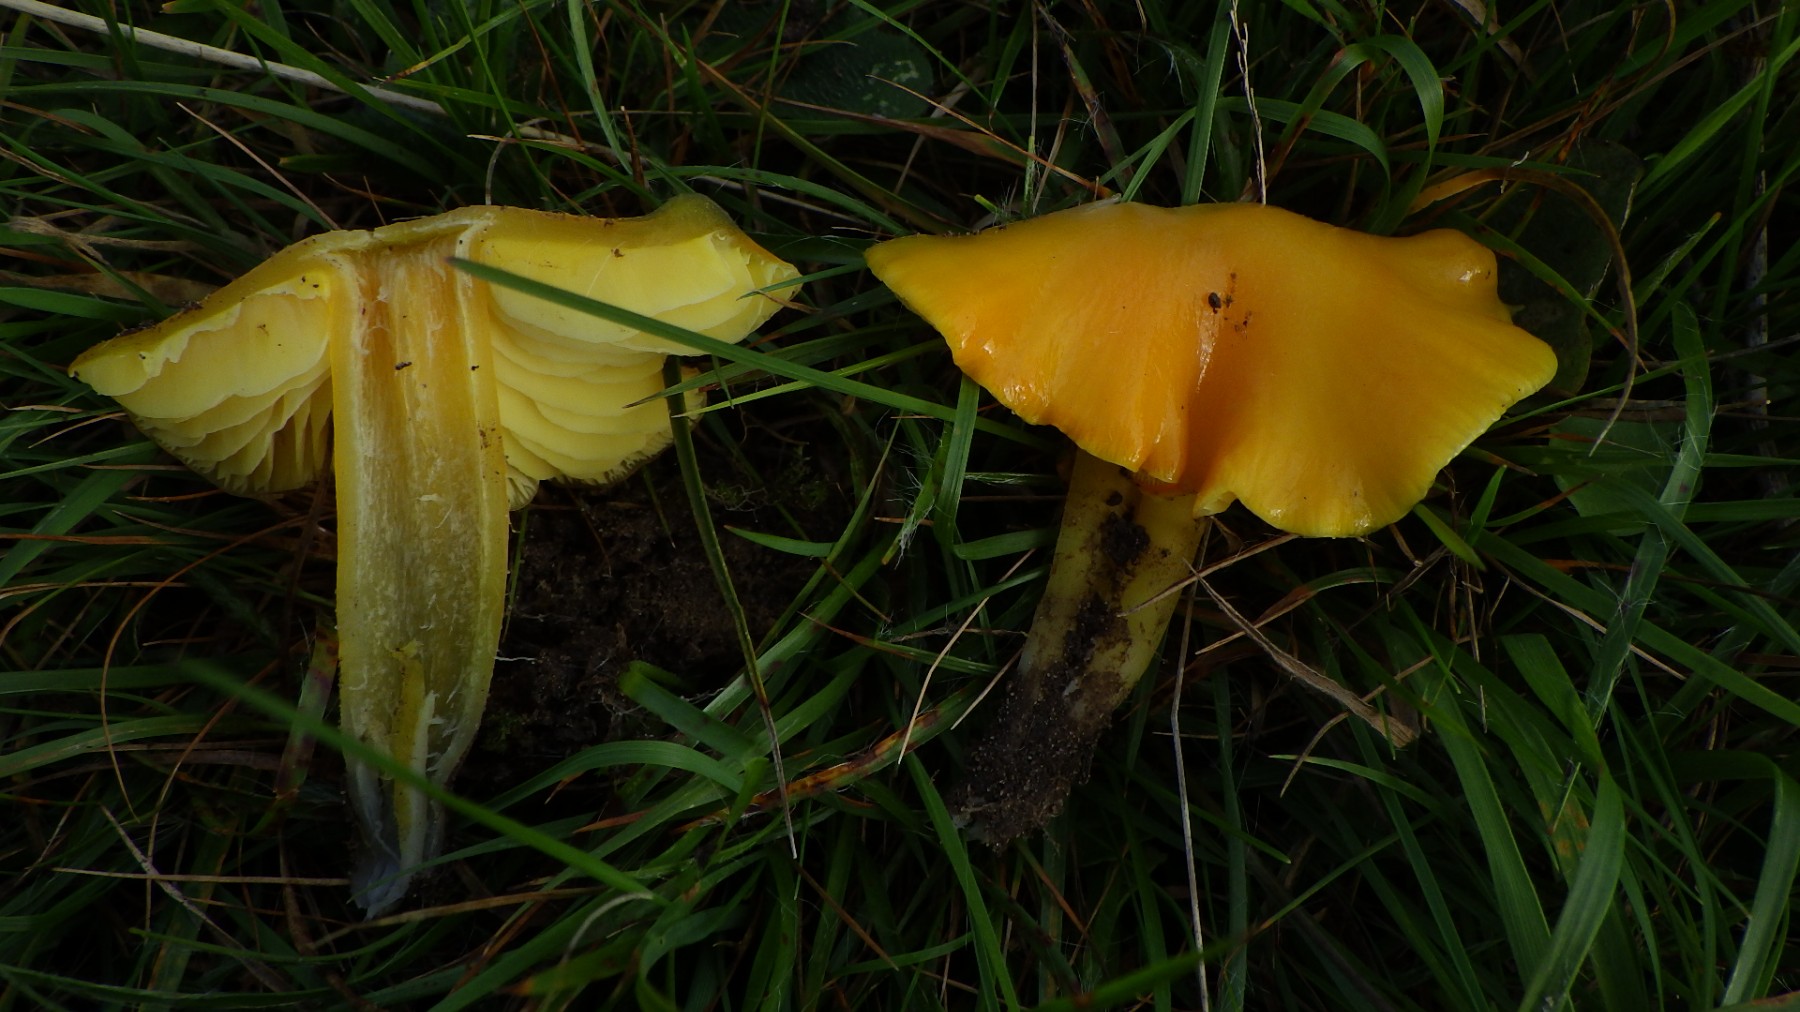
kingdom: Fungi
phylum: Basidiomycota
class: Agaricomycetes
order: Agaricales
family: Hygrophoraceae
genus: Hygrocybe
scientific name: Hygrocybe chlorophana
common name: gul vokshat
